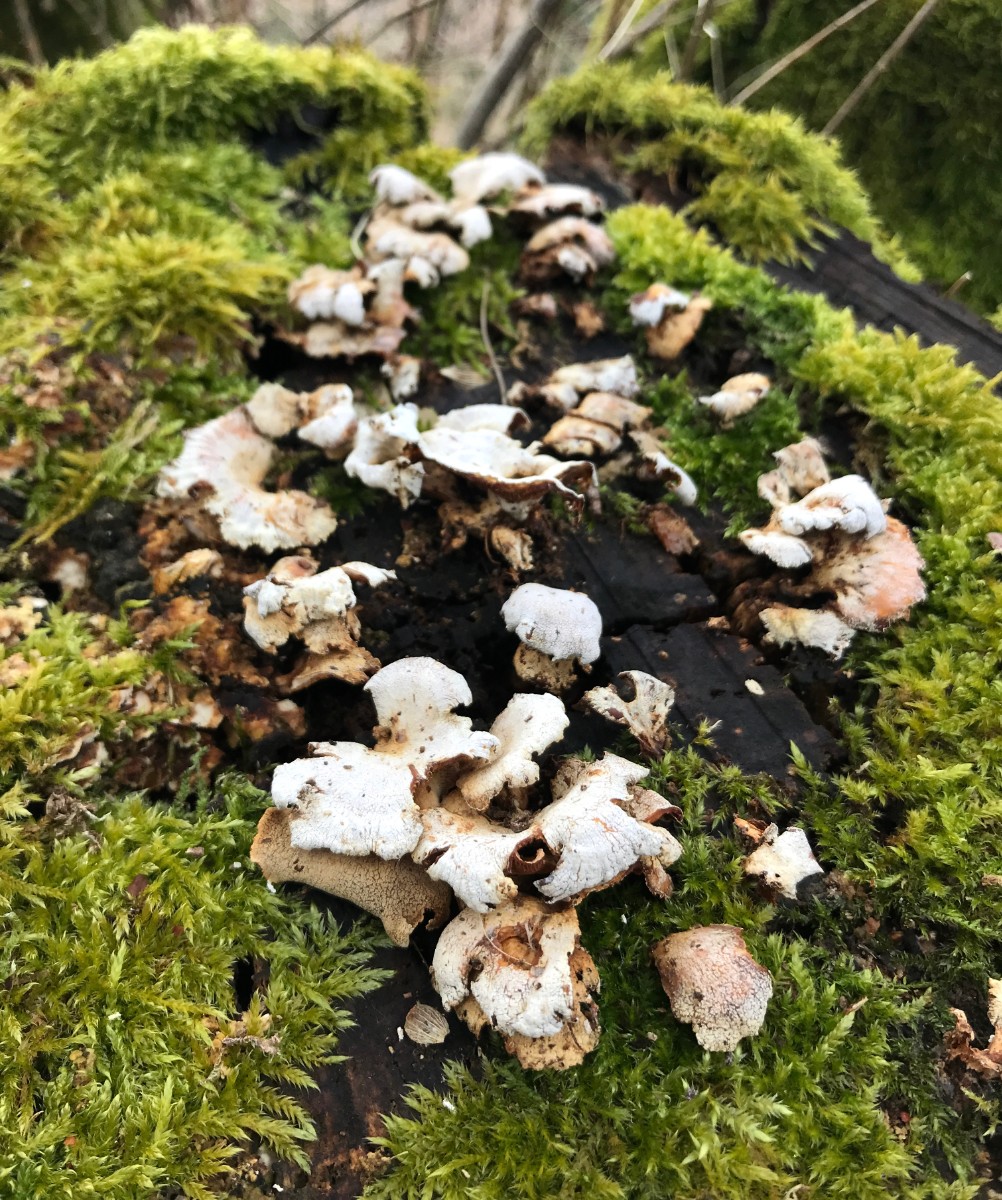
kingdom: Fungi
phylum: Basidiomycota
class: Agaricomycetes
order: Agaricales
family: Mycenaceae
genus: Panellus
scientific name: Panellus stipticus
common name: kliddet epaulethat
